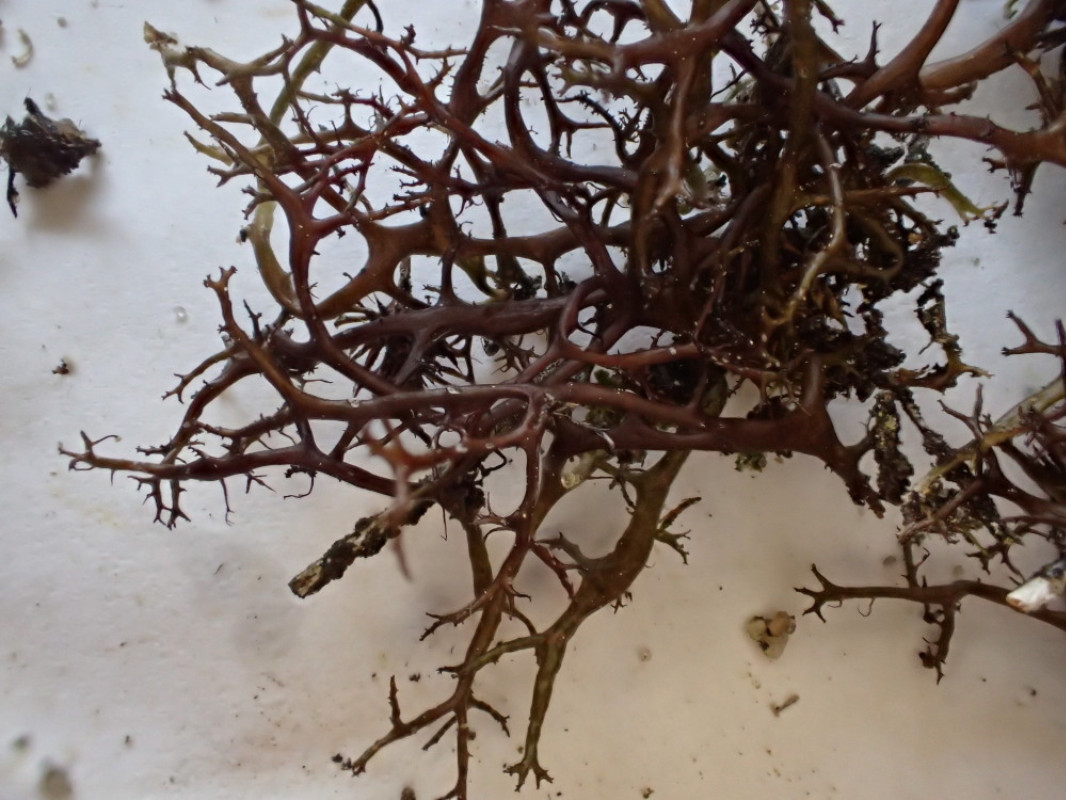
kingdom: Fungi
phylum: Ascomycota
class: Lecanoromycetes
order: Lecanorales
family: Parmeliaceae
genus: Cetraria
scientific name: Cetraria muricata
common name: tue-tjørnelav
